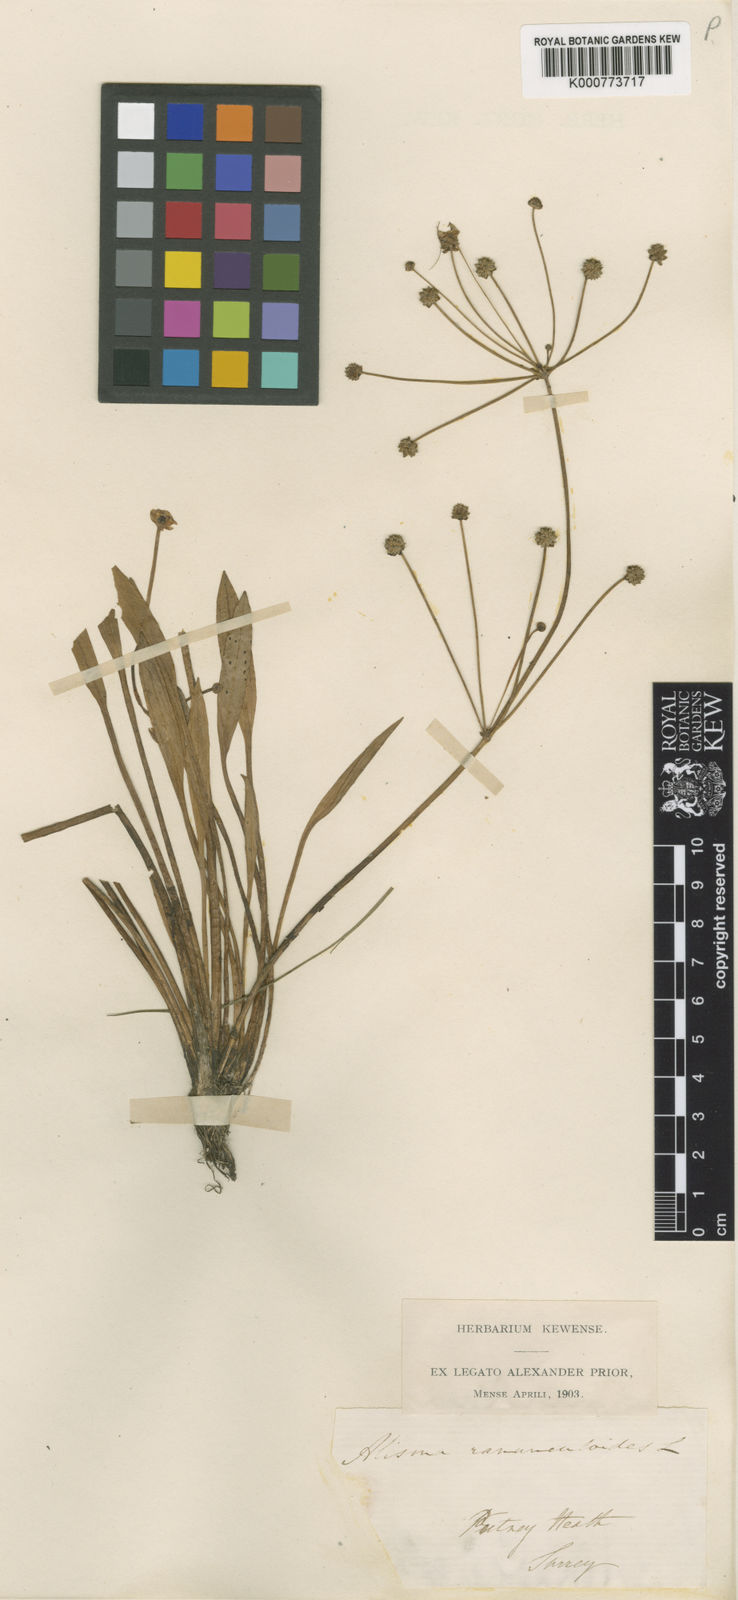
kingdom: Plantae
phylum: Tracheophyta
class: Liliopsida
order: Alismatales
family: Alismataceae
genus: Baldellia
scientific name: Baldellia ranunculoides
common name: Lesser water-plantain
